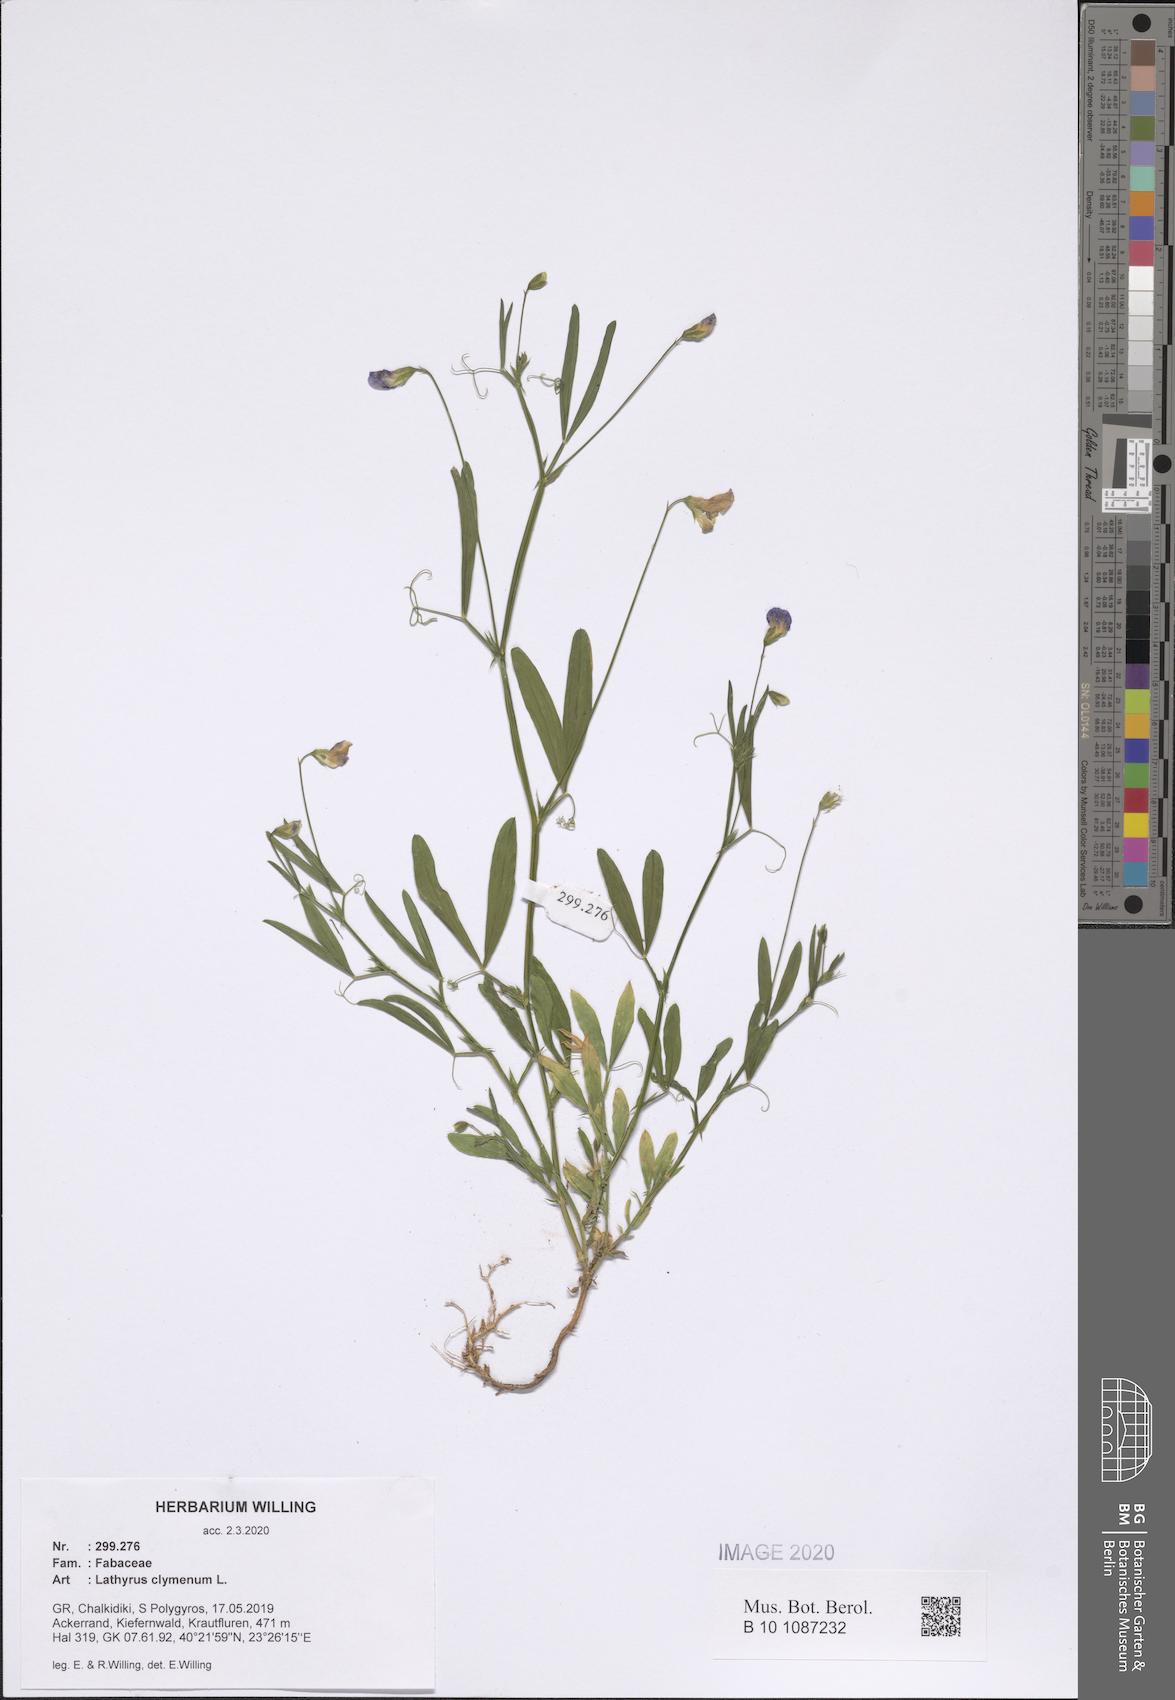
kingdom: Plantae
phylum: Tracheophyta
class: Magnoliopsida
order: Fabales
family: Fabaceae
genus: Lathyrus
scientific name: Lathyrus clymenum
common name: Spanish vetchling
